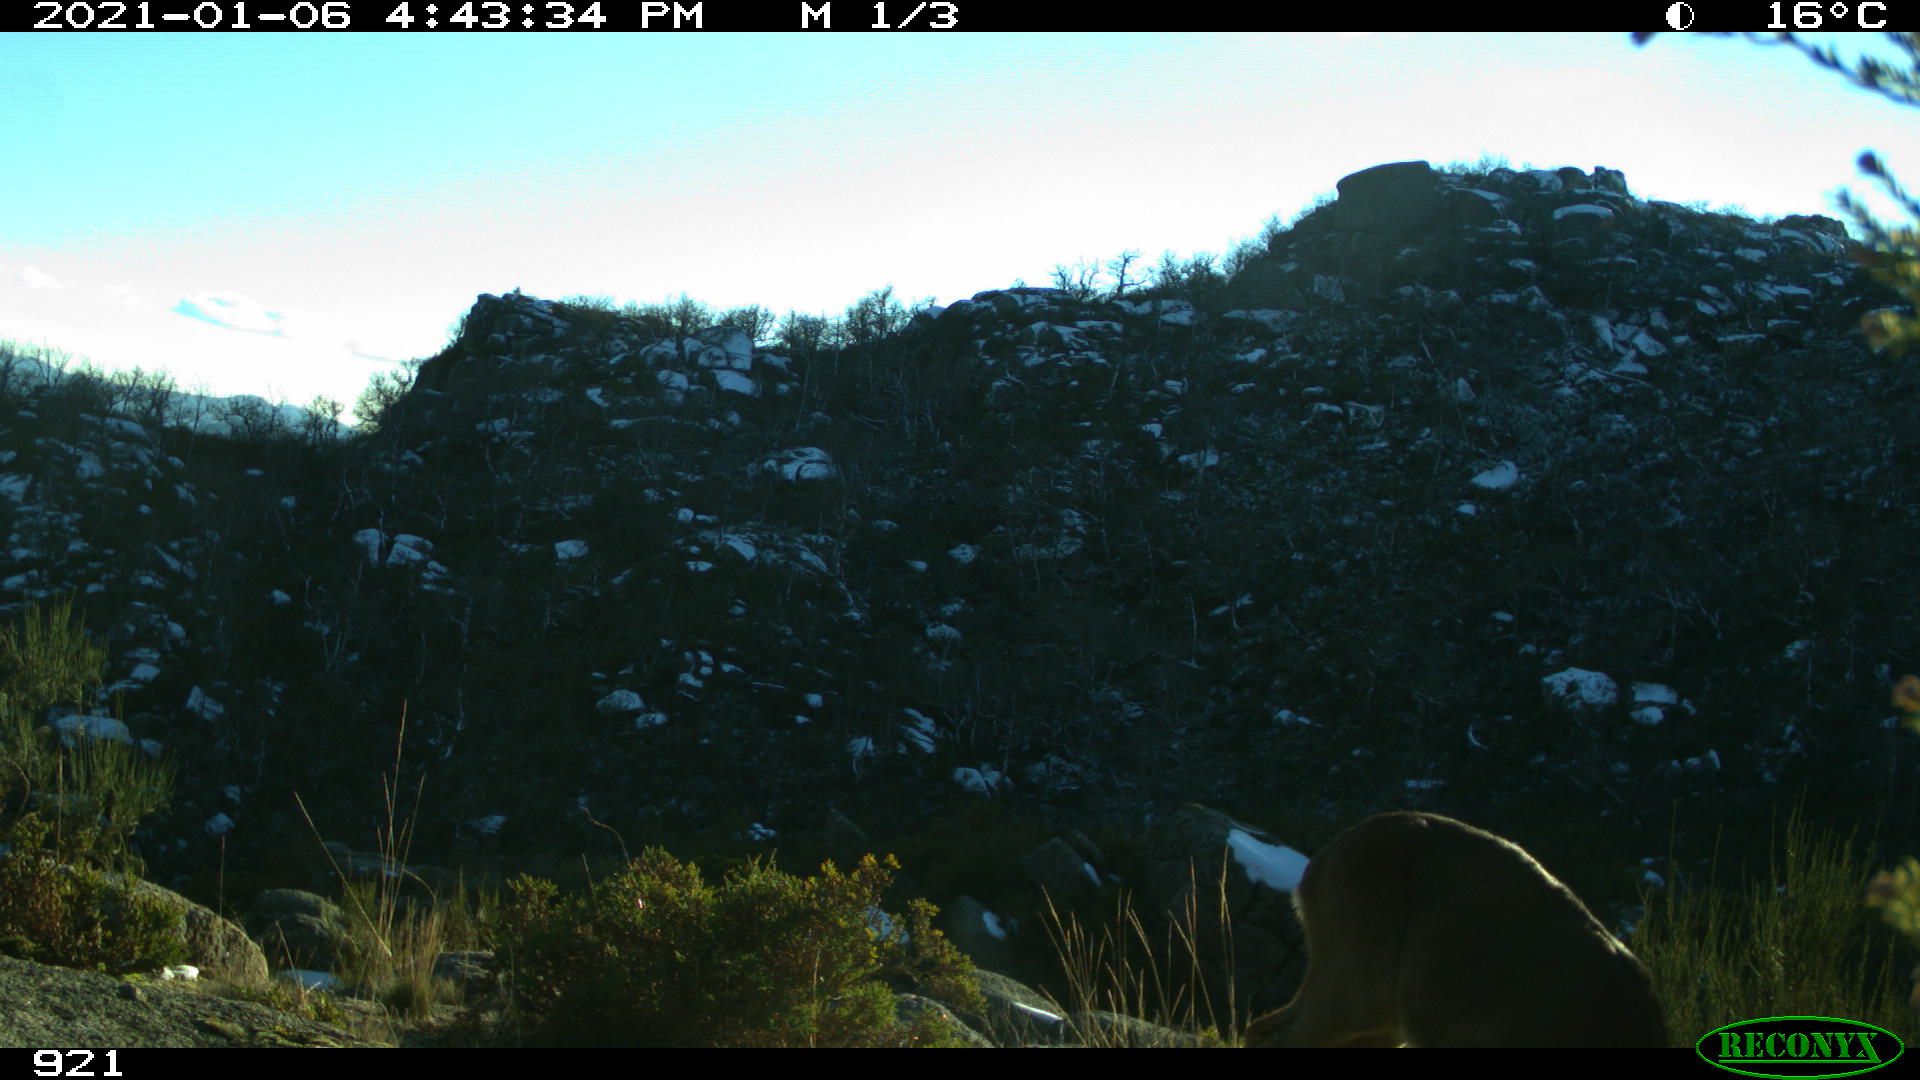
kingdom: Animalia
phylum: Chordata
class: Mammalia
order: Artiodactyla
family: Cervidae
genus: Capreolus
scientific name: Capreolus capreolus
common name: Western roe deer
